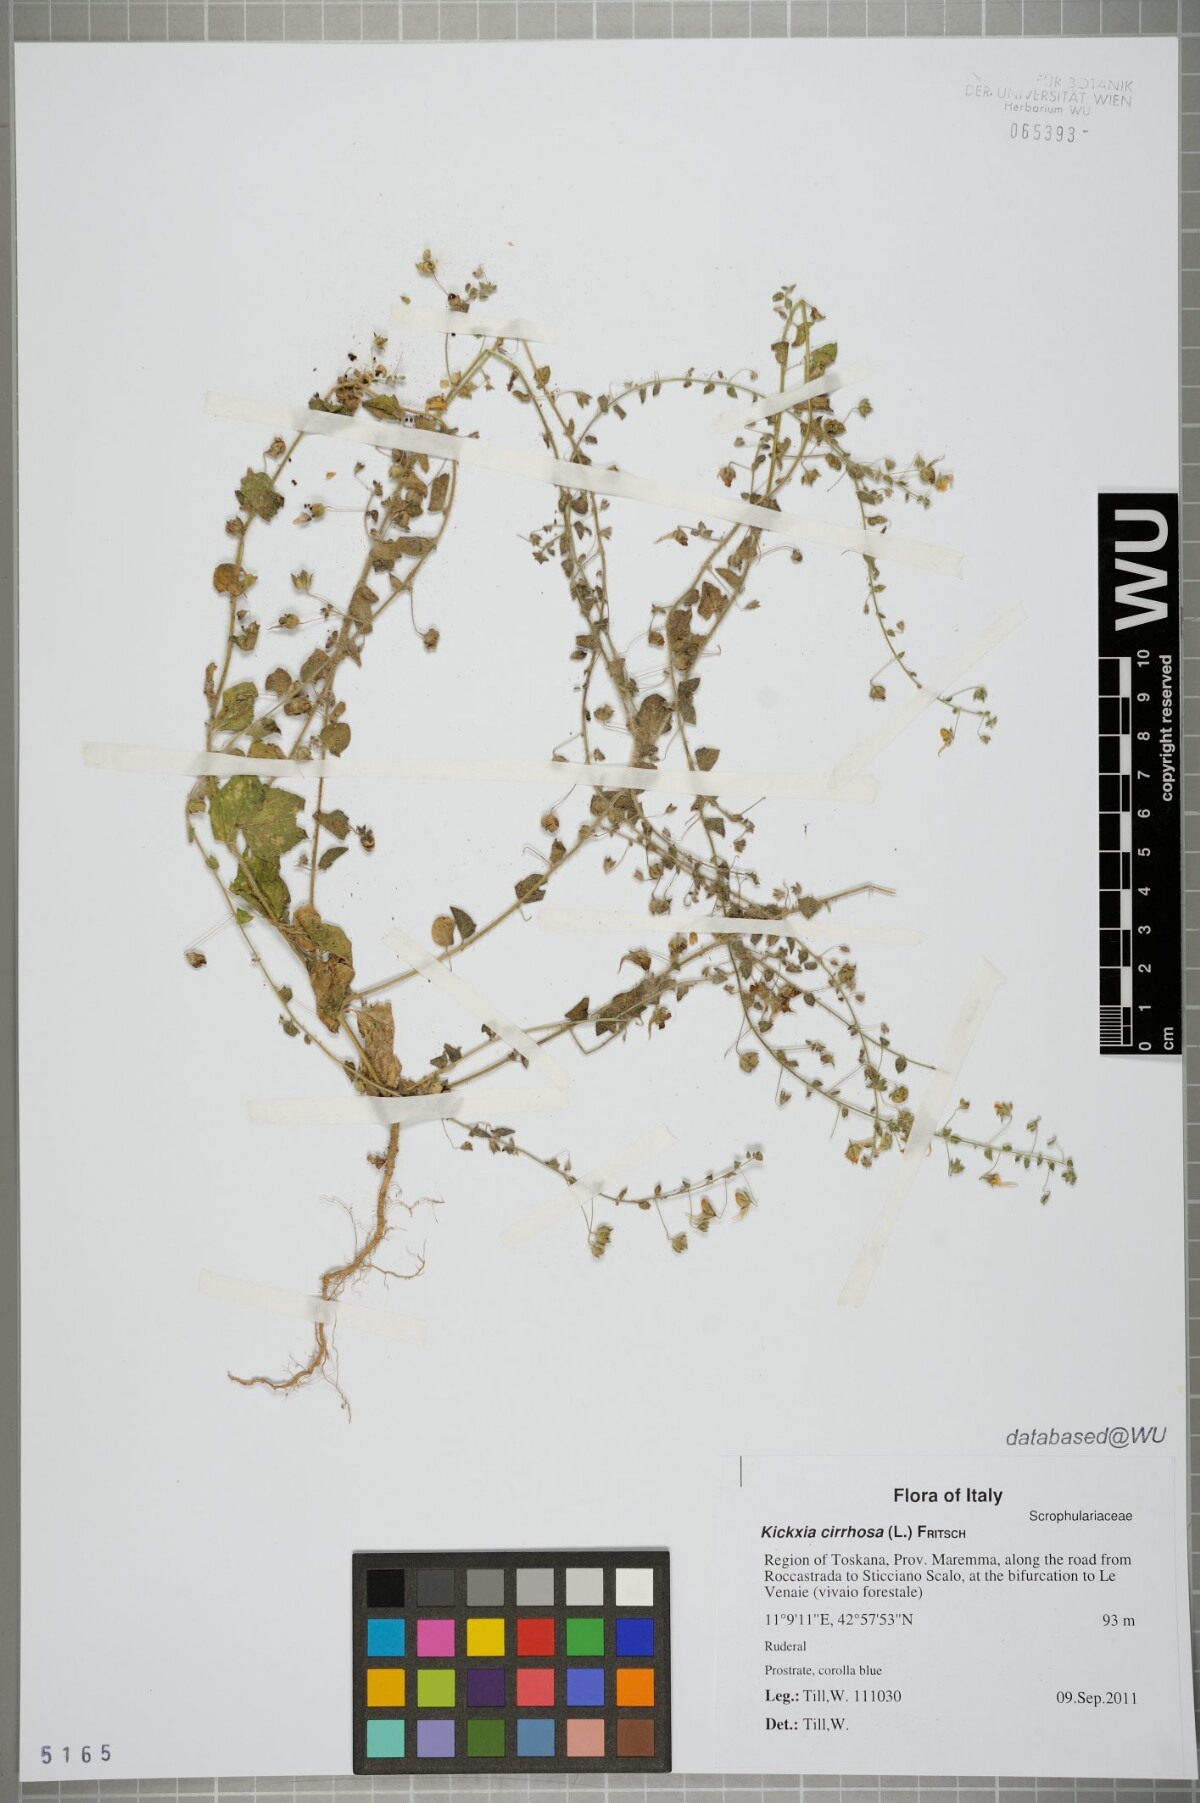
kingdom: Plantae
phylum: Tracheophyta
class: Magnoliopsida
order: Lamiales
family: Plantaginaceae
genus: Kickxia
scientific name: Kickxia cirrhosa
